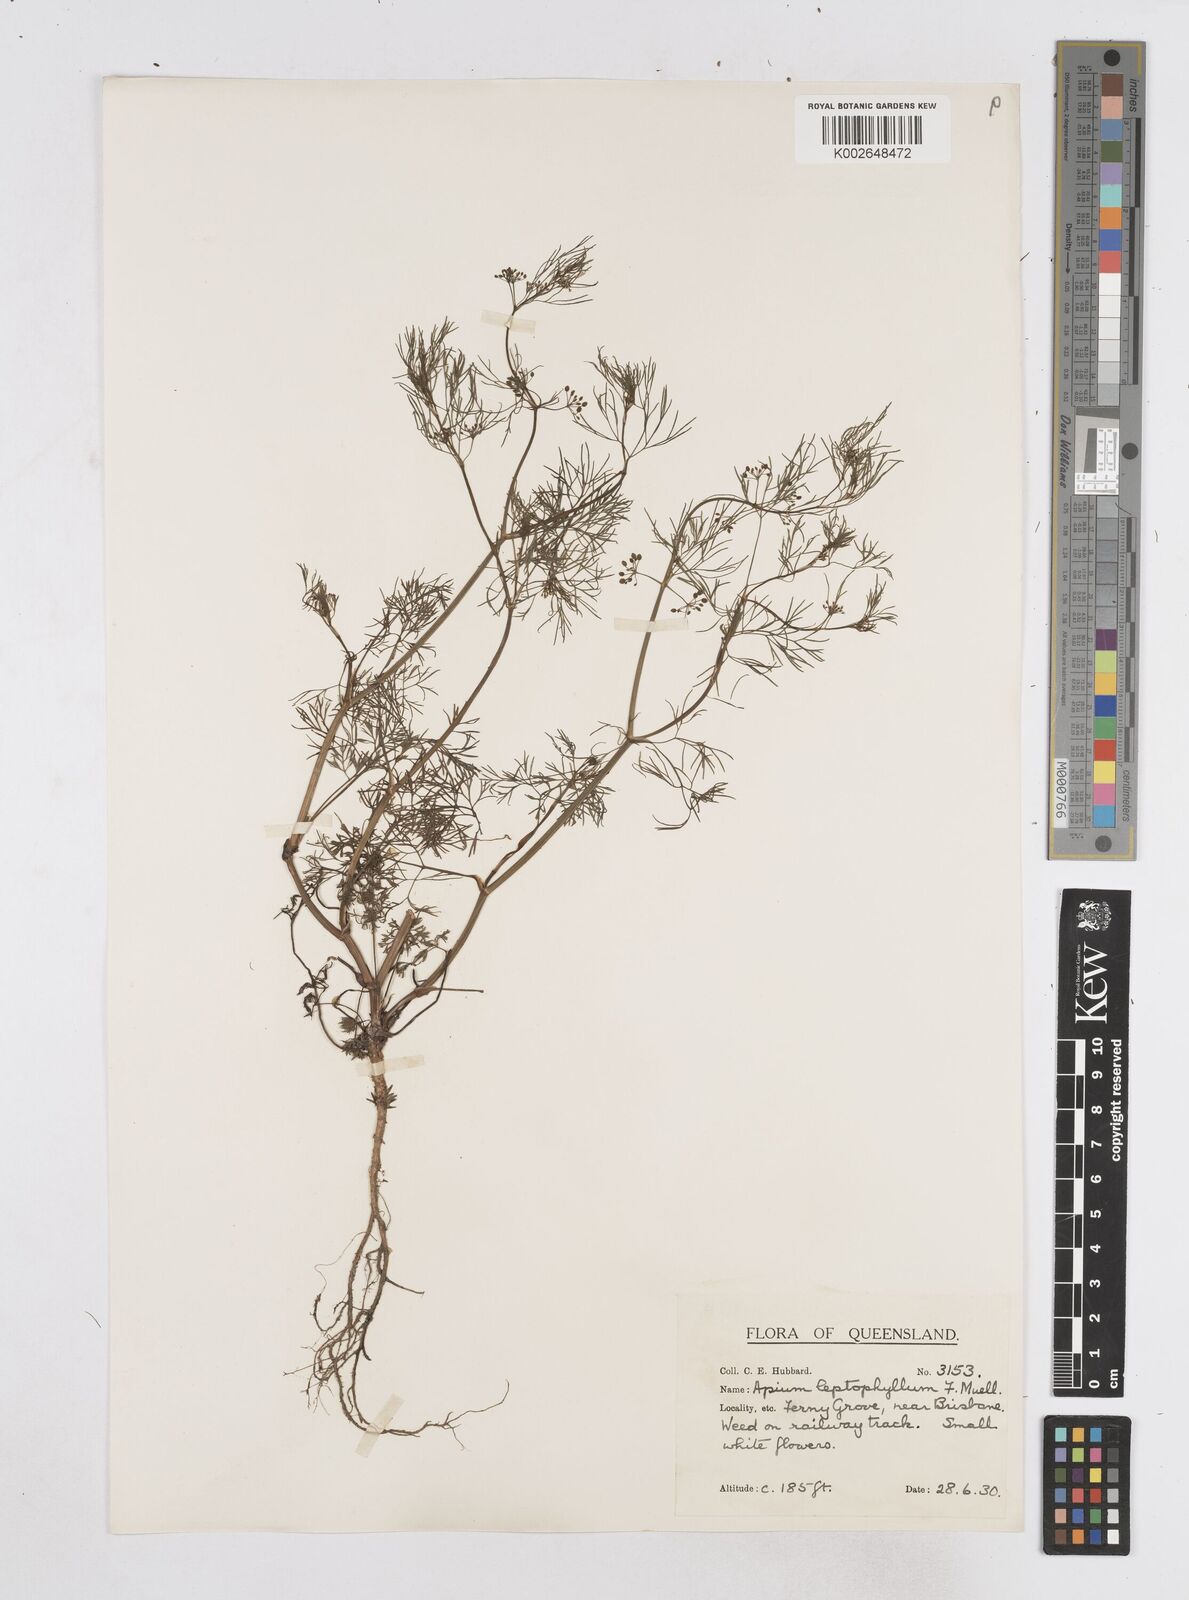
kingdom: Plantae
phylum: Tracheophyta
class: Magnoliopsida
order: Apiales
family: Apiaceae
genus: Cyclospermum
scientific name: Cyclospermum leptophyllum
